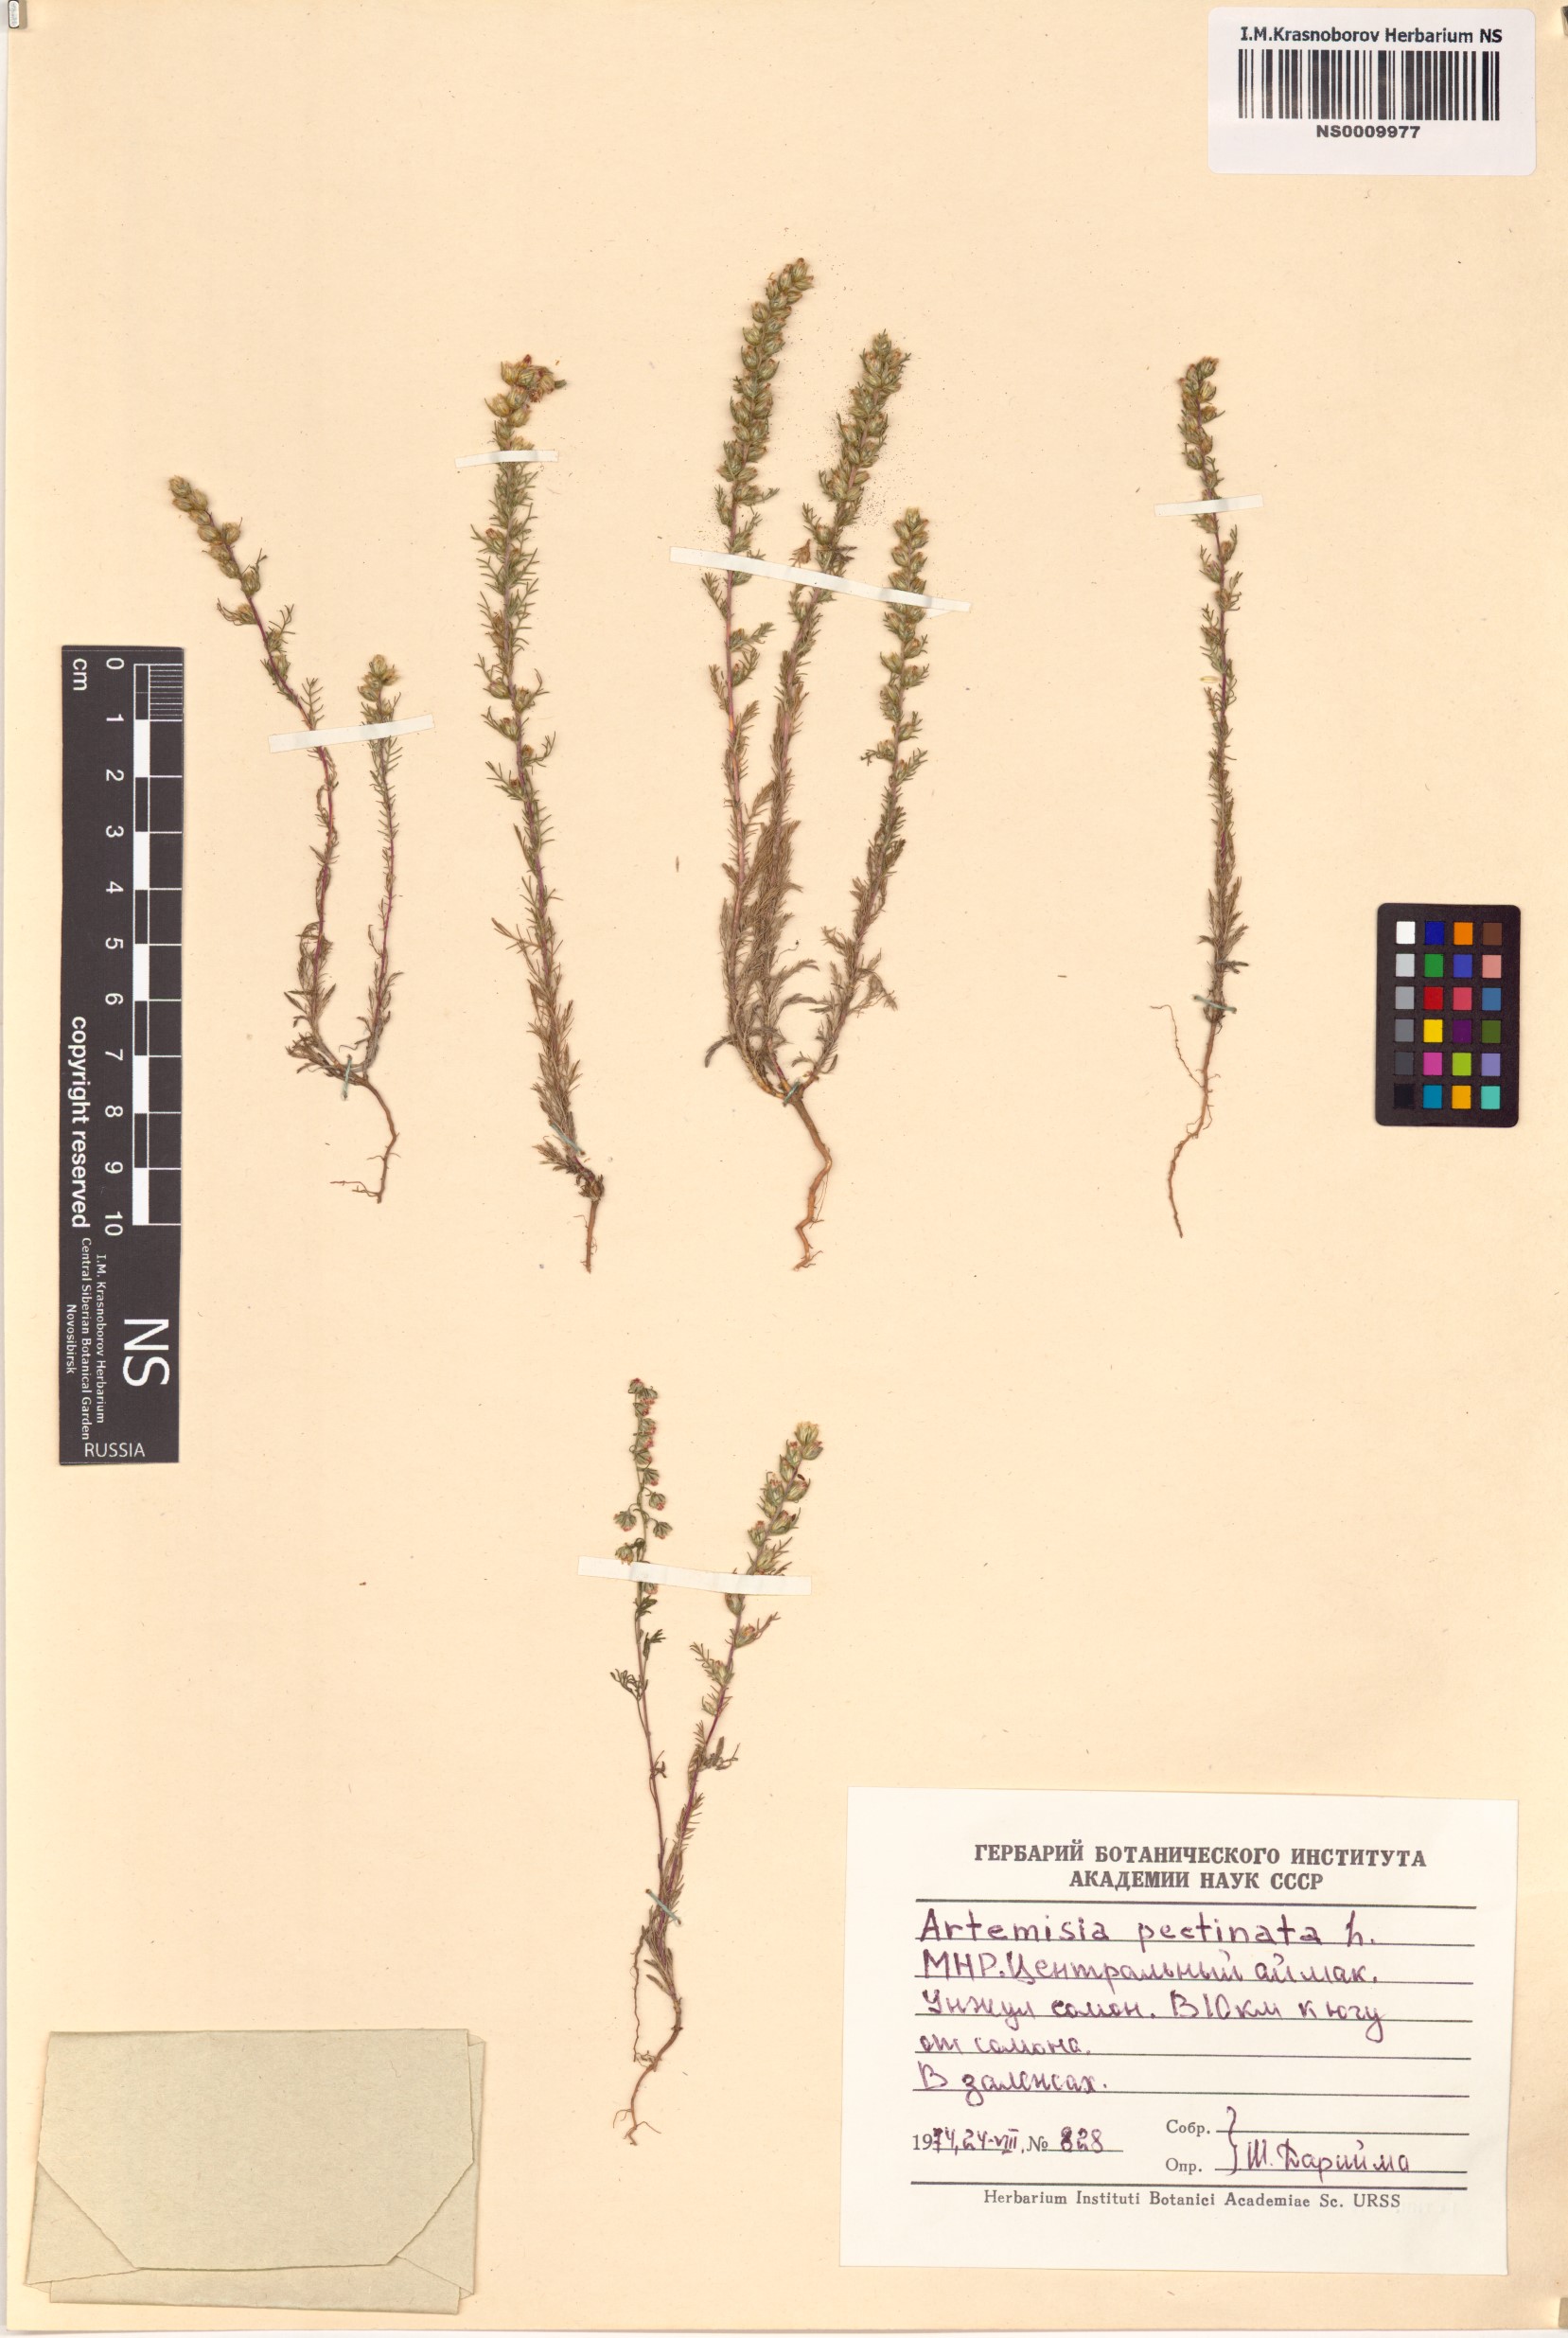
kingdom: Plantae
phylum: Tracheophyta
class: Magnoliopsida
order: Asterales
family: Asteraceae
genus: Neopallasia
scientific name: Neopallasia pectinata
